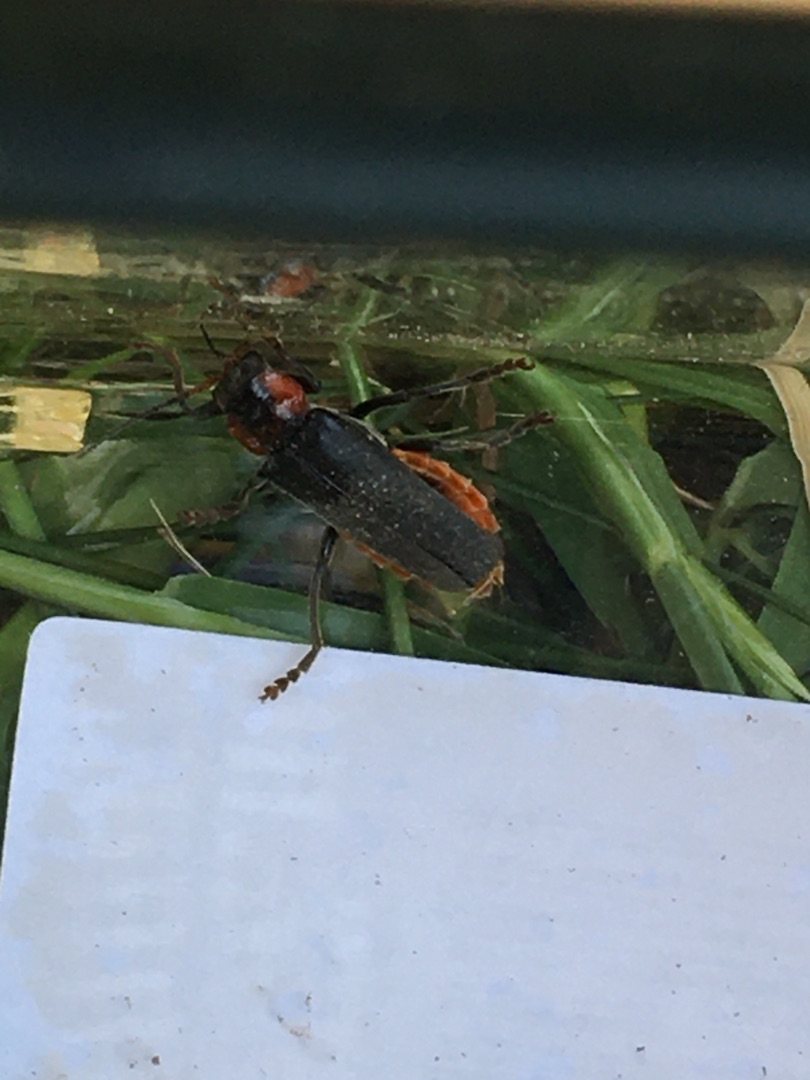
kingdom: Animalia
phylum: Arthropoda
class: Insecta
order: Coleoptera
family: Cantharidae
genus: Cantharis
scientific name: Cantharis fusca
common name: Stor blødvinge
